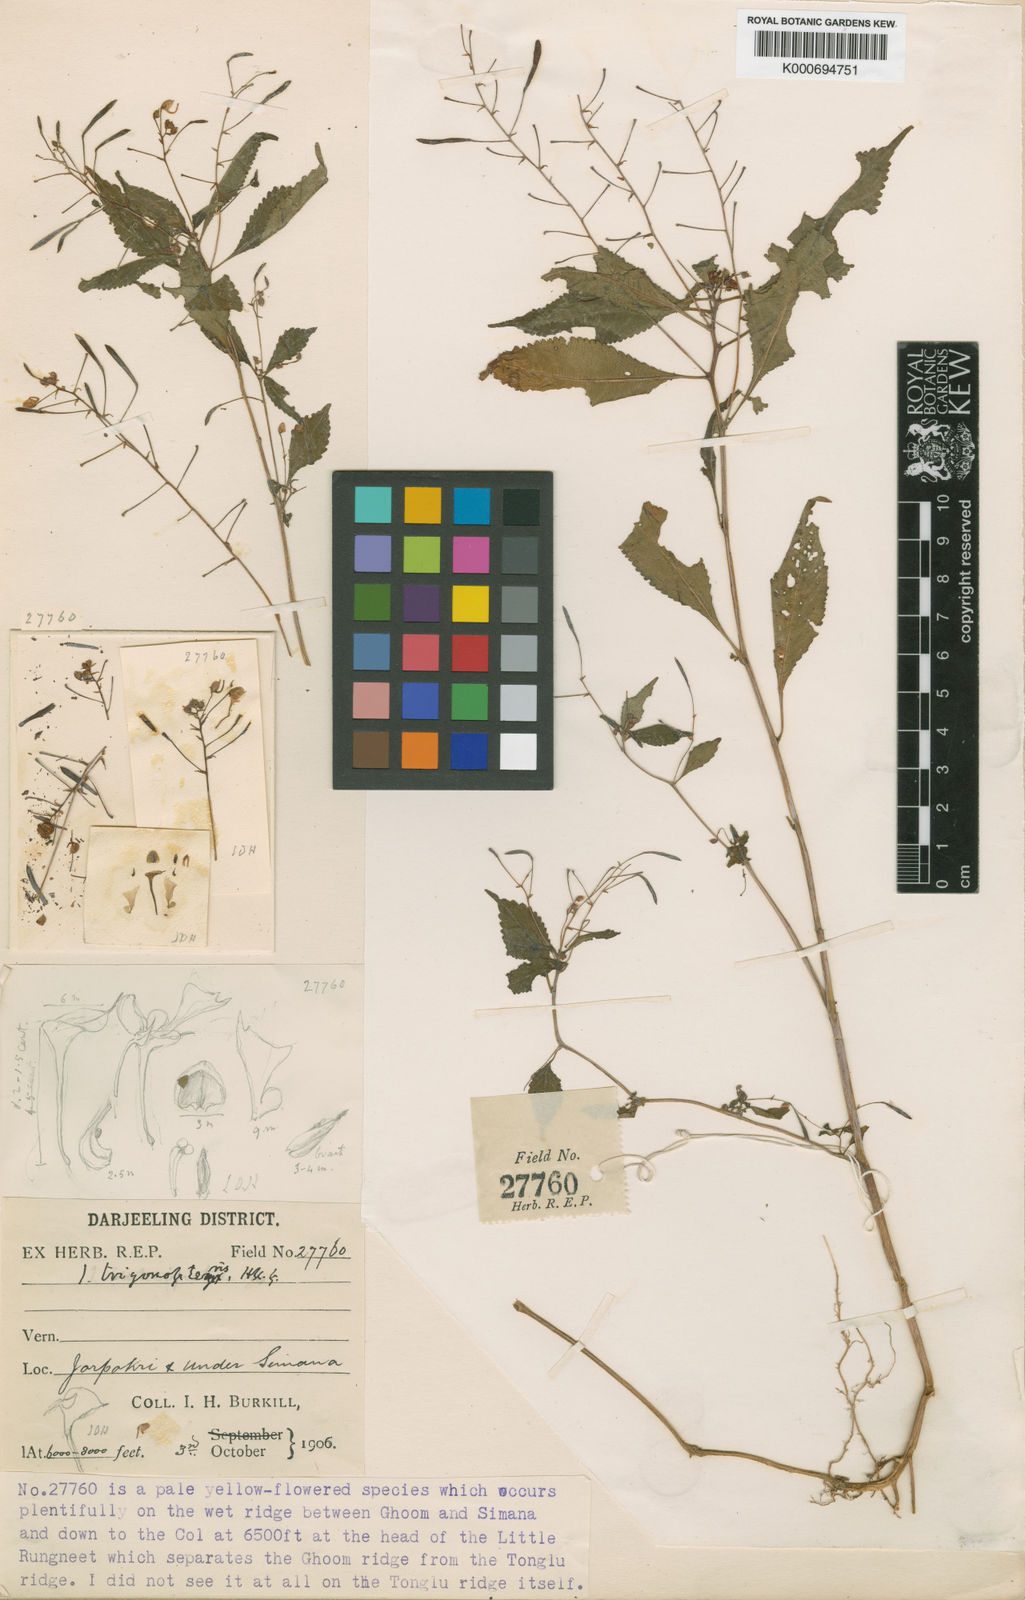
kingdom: Plantae
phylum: Tracheophyta
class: Magnoliopsida
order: Ericales
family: Balsaminaceae
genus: Impatiens
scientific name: Impatiens
